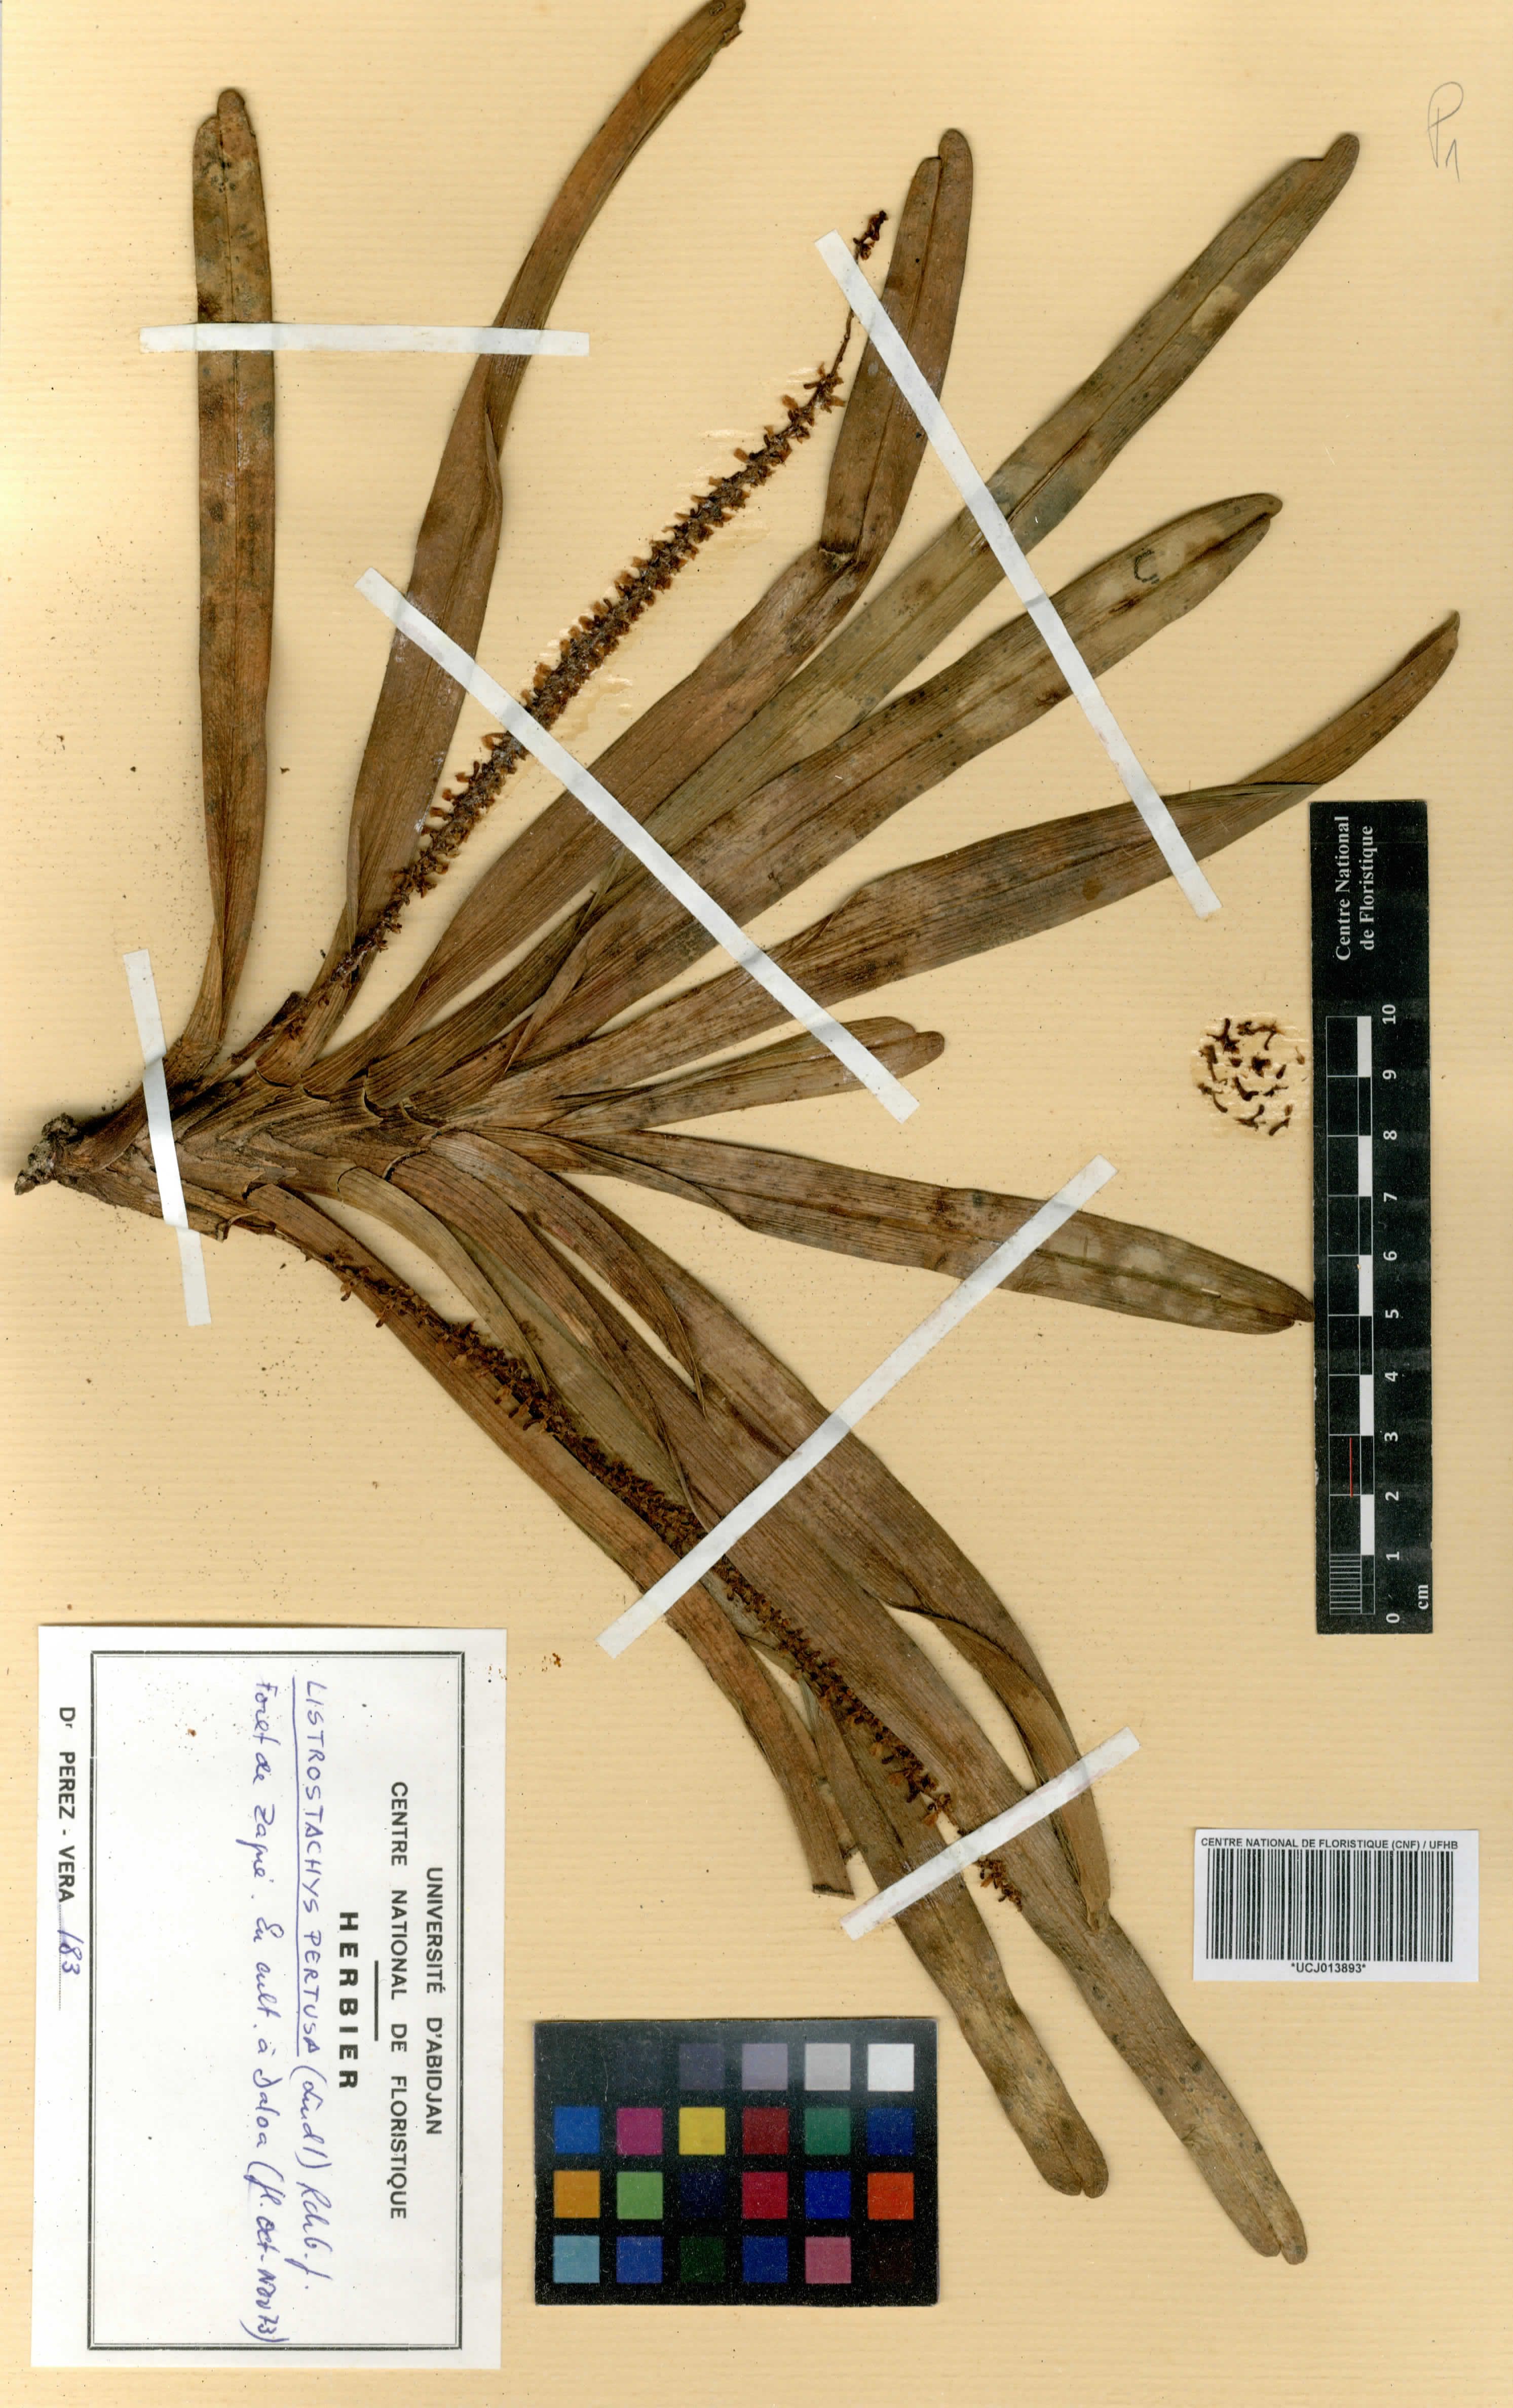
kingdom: Plantae
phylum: Tracheophyta
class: Liliopsida
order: Asparagales
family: Orchidaceae
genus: Listrostachys
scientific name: Listrostachys pertusa
